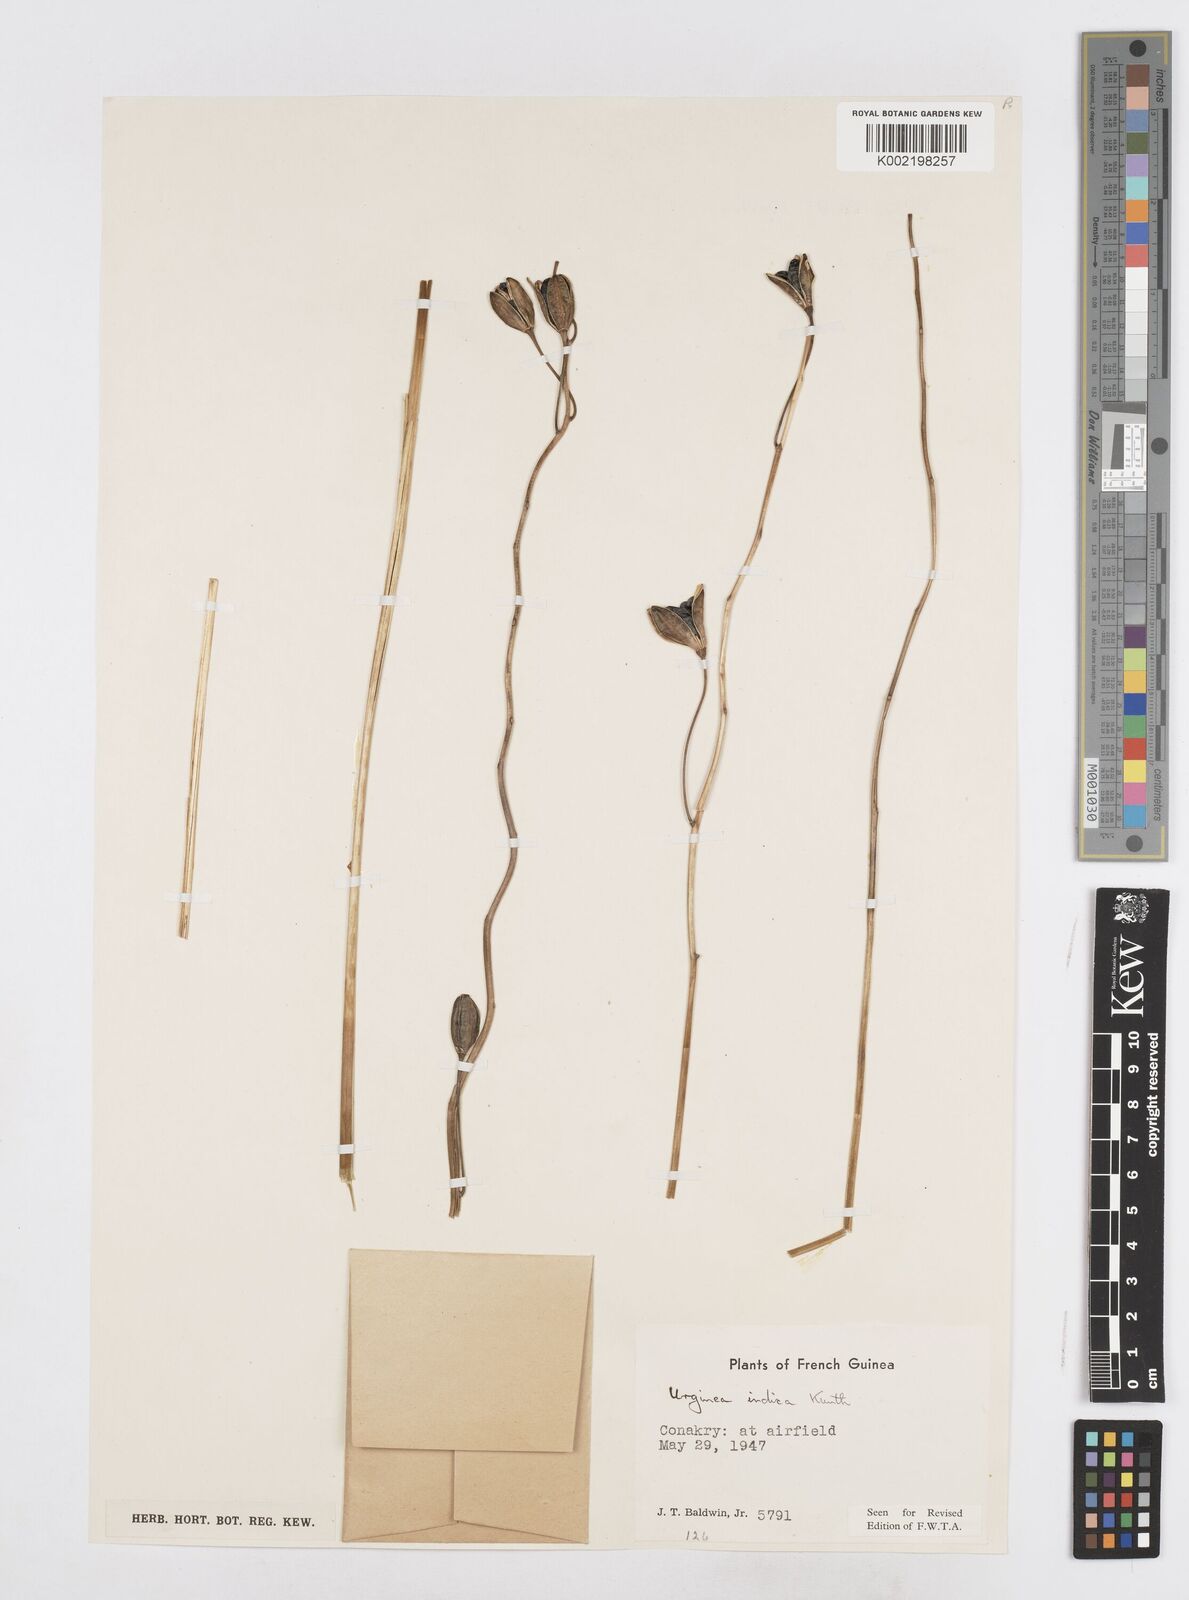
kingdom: Plantae
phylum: Tracheophyta
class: Liliopsida
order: Asparagales
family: Asparagaceae
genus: Drimia
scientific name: Drimia indica
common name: Indian-squill
